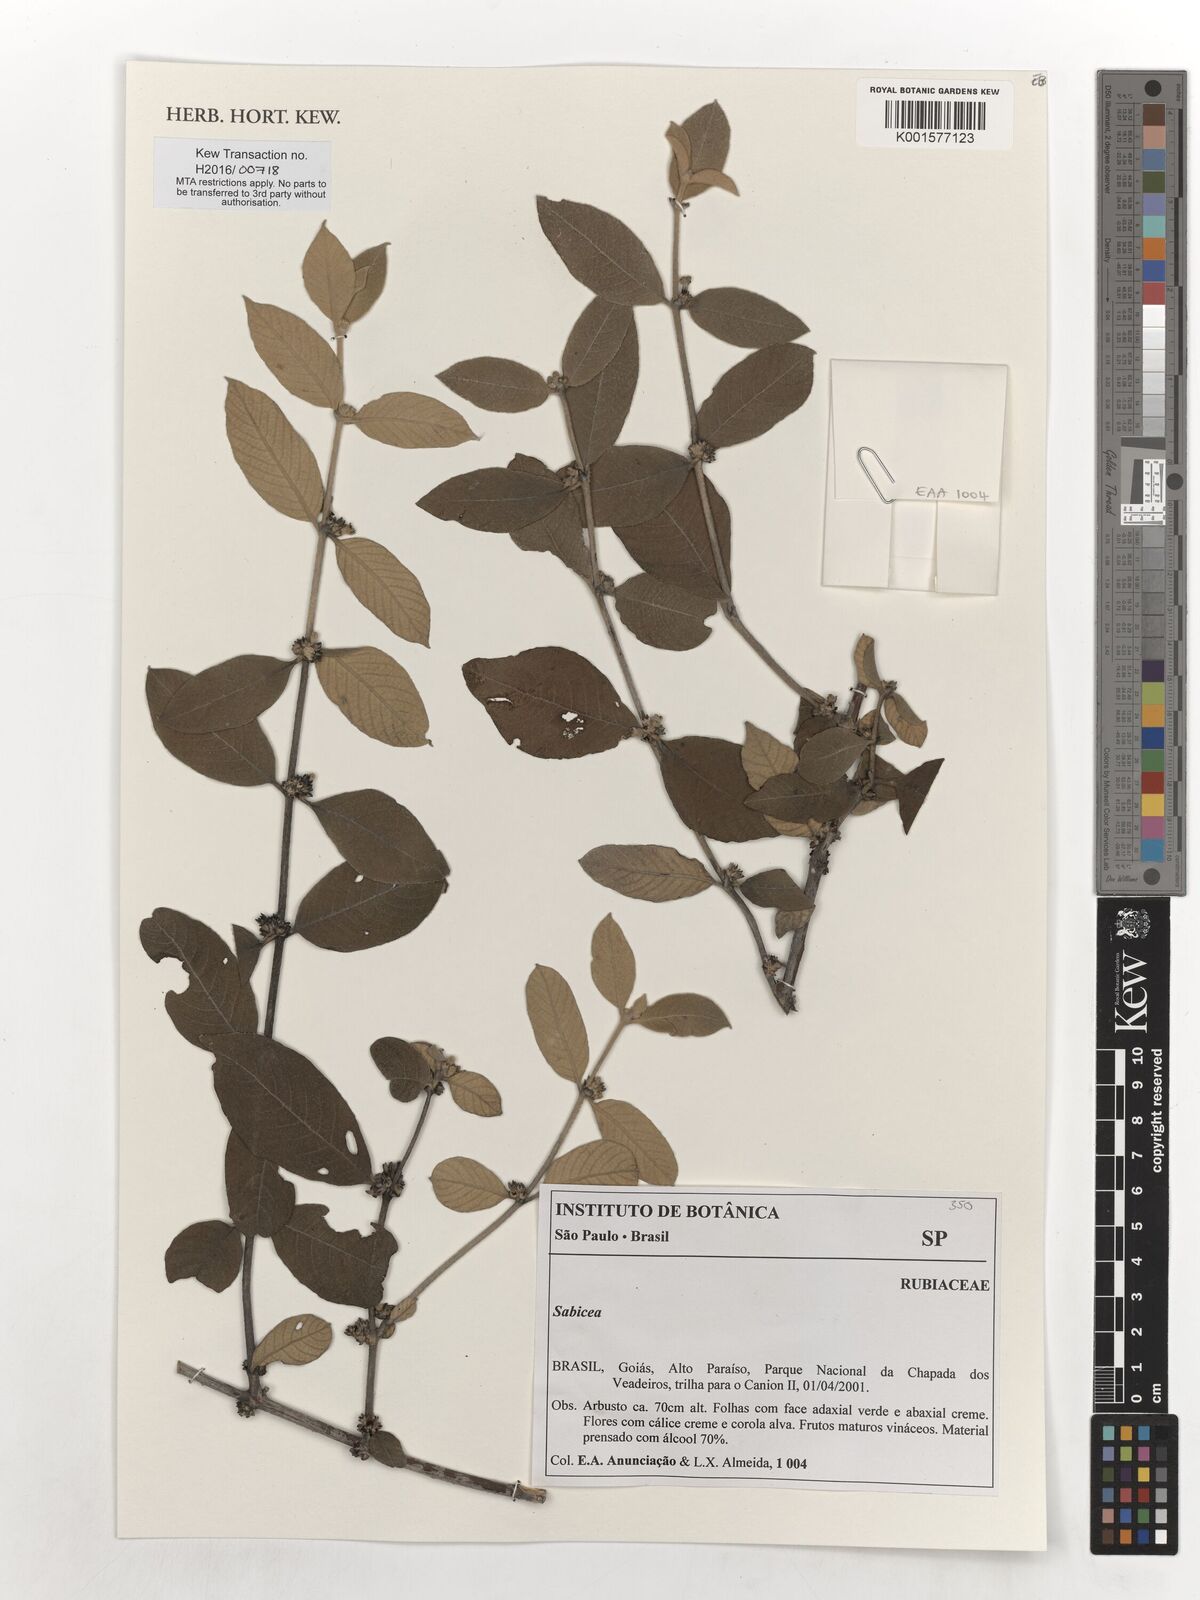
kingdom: Plantae
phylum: Tracheophyta
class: Magnoliopsida
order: Gentianales
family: Rubiaceae
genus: Sabicea
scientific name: Sabicea
